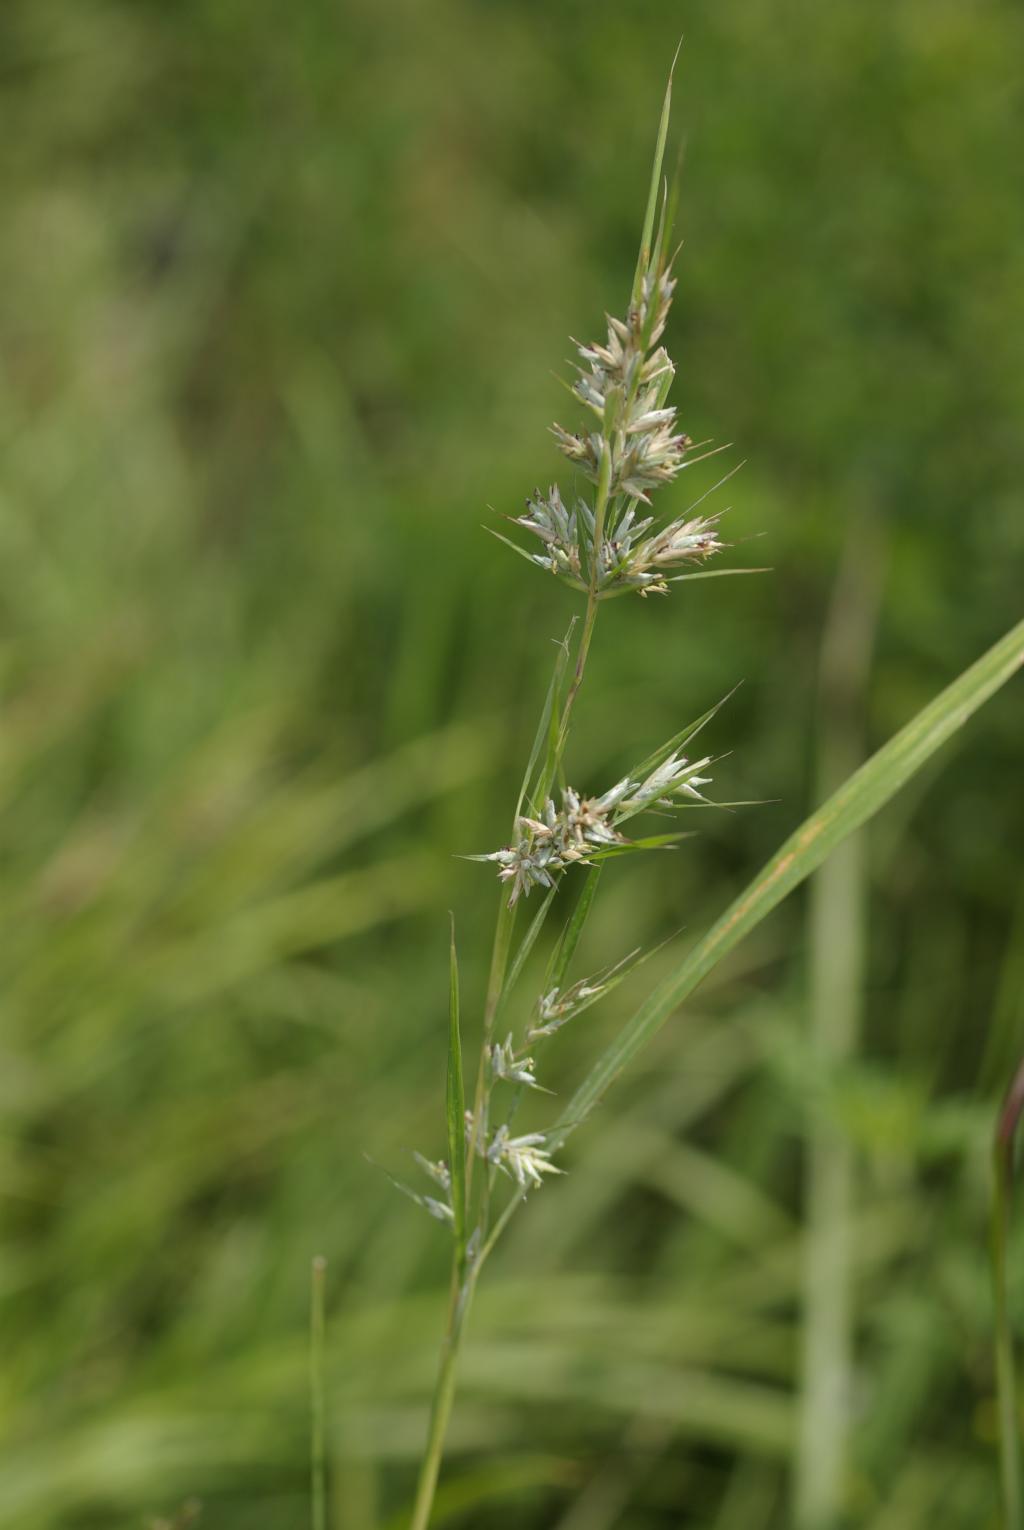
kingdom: Plantae
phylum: Tracheophyta
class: Liliopsida
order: Poales
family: Poaceae
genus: Apluda
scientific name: Apluda mutica
